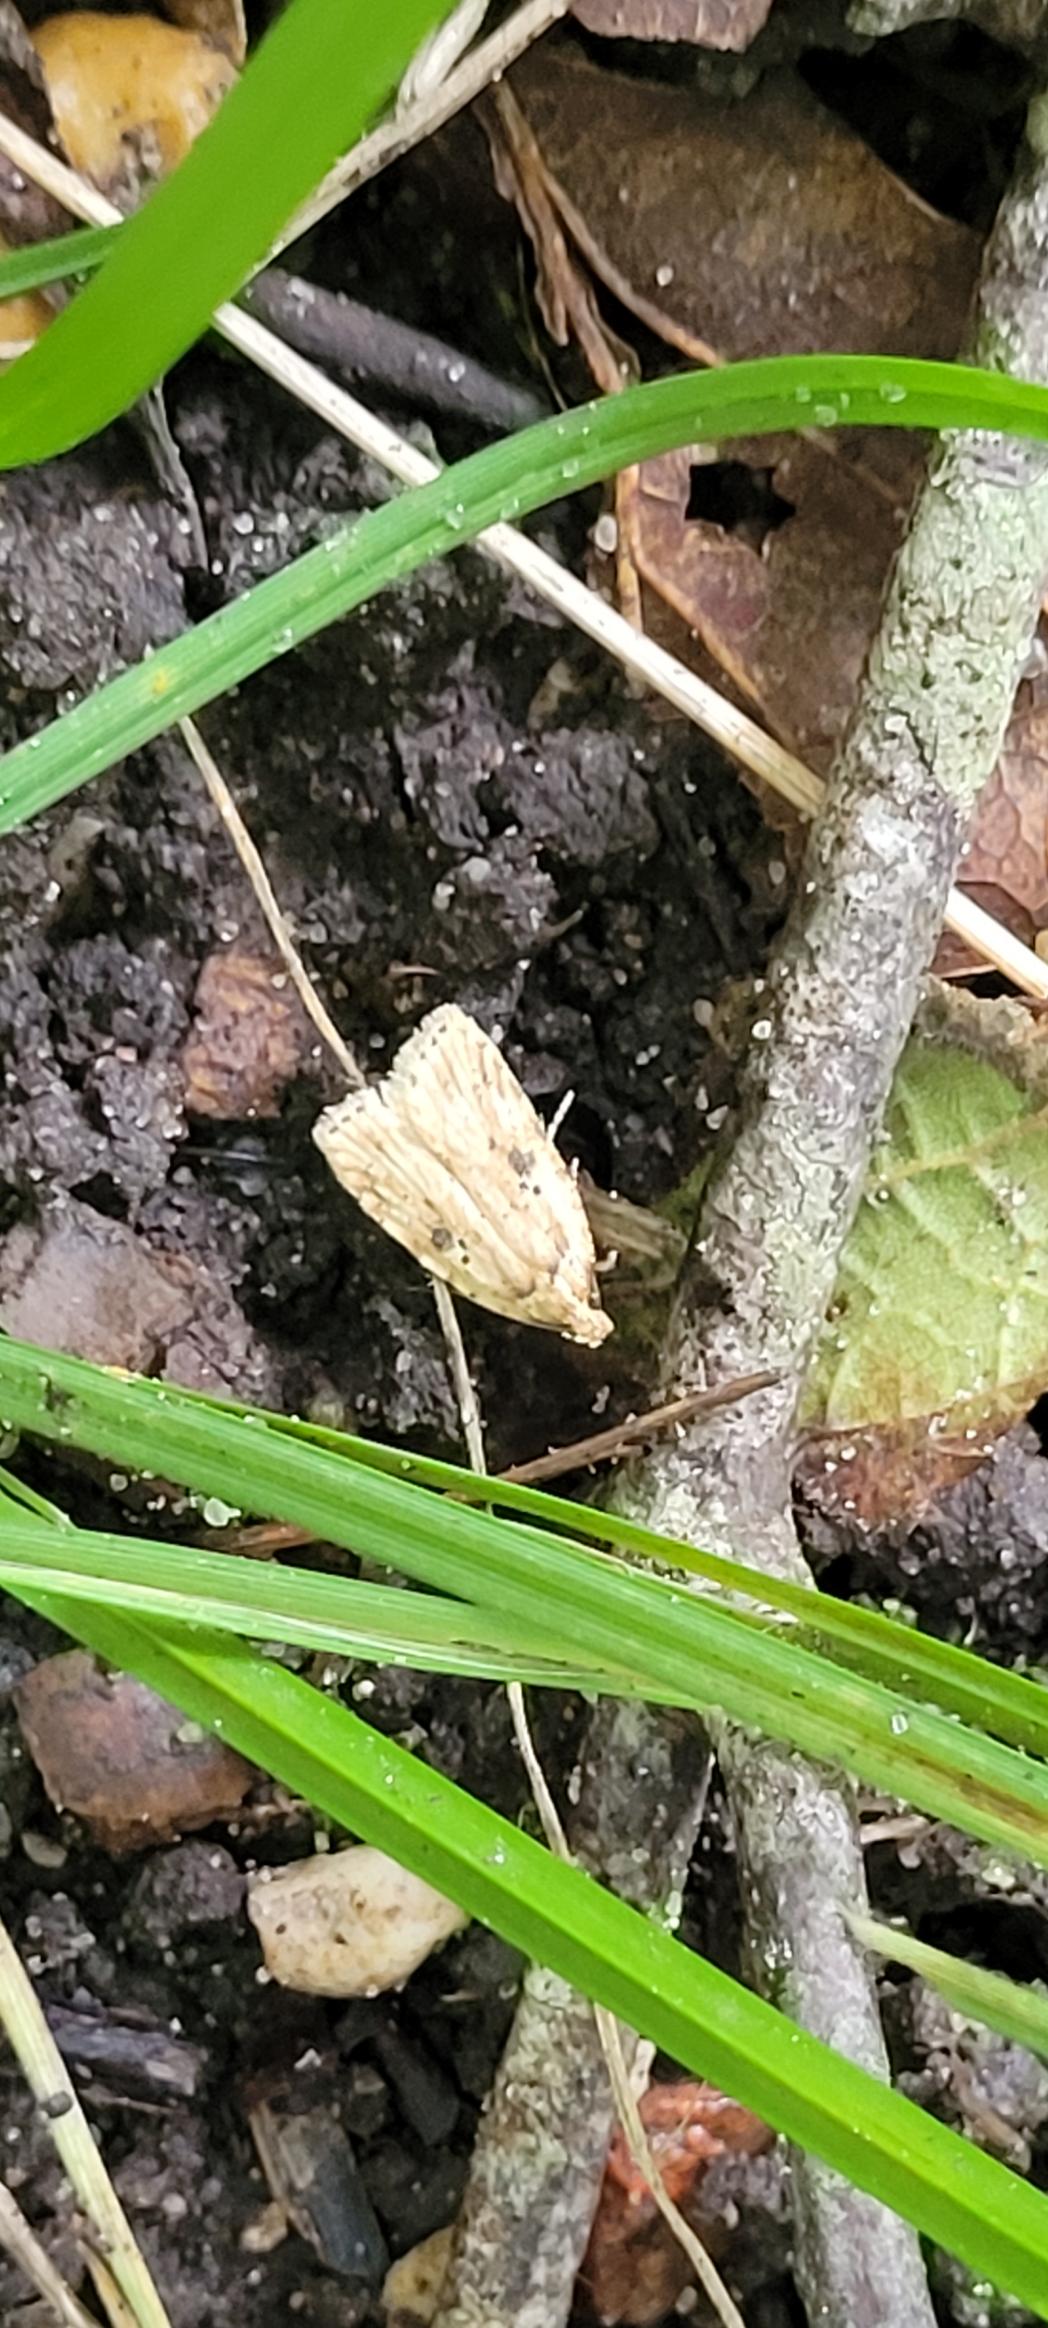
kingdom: Animalia
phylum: Arthropoda
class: Insecta
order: Lepidoptera
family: Depressariidae
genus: Agonopterix
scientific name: Agonopterix arenella
